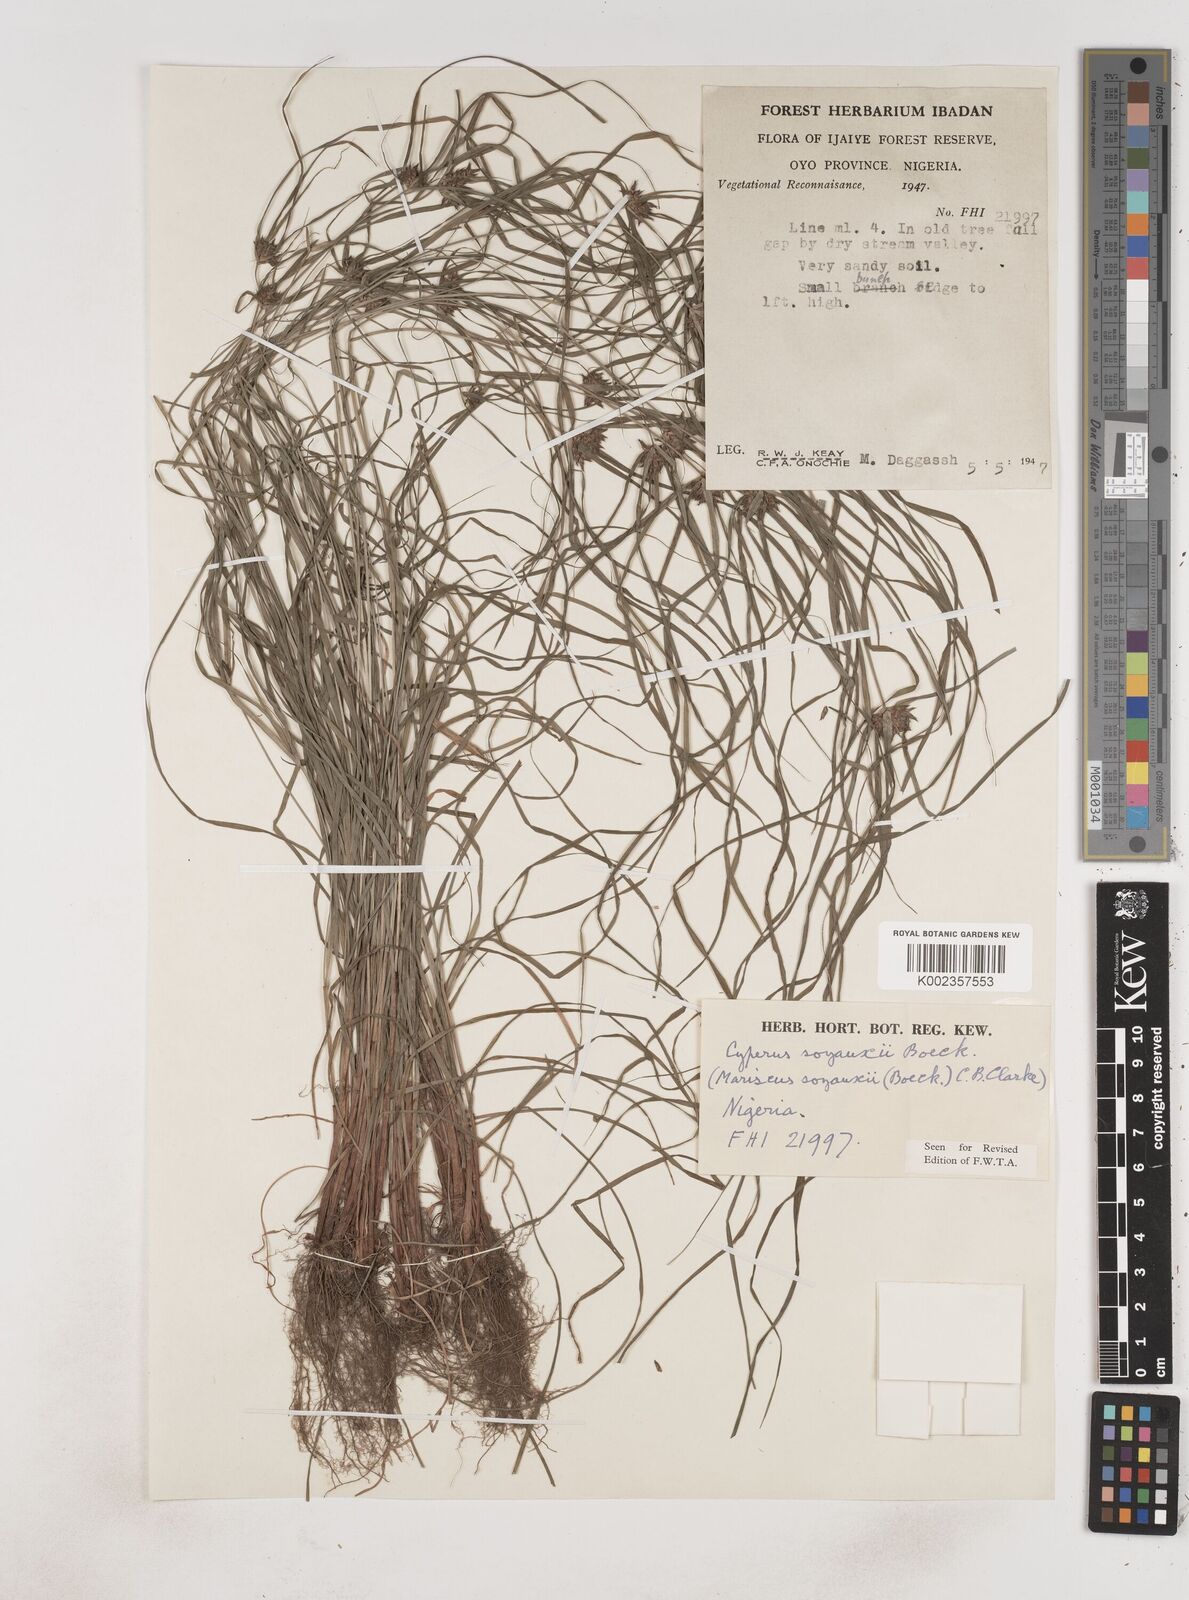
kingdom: Plantae
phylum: Tracheophyta
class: Liliopsida
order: Poales
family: Cyperaceae
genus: Cyperus
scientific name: Cyperus soyauxii
